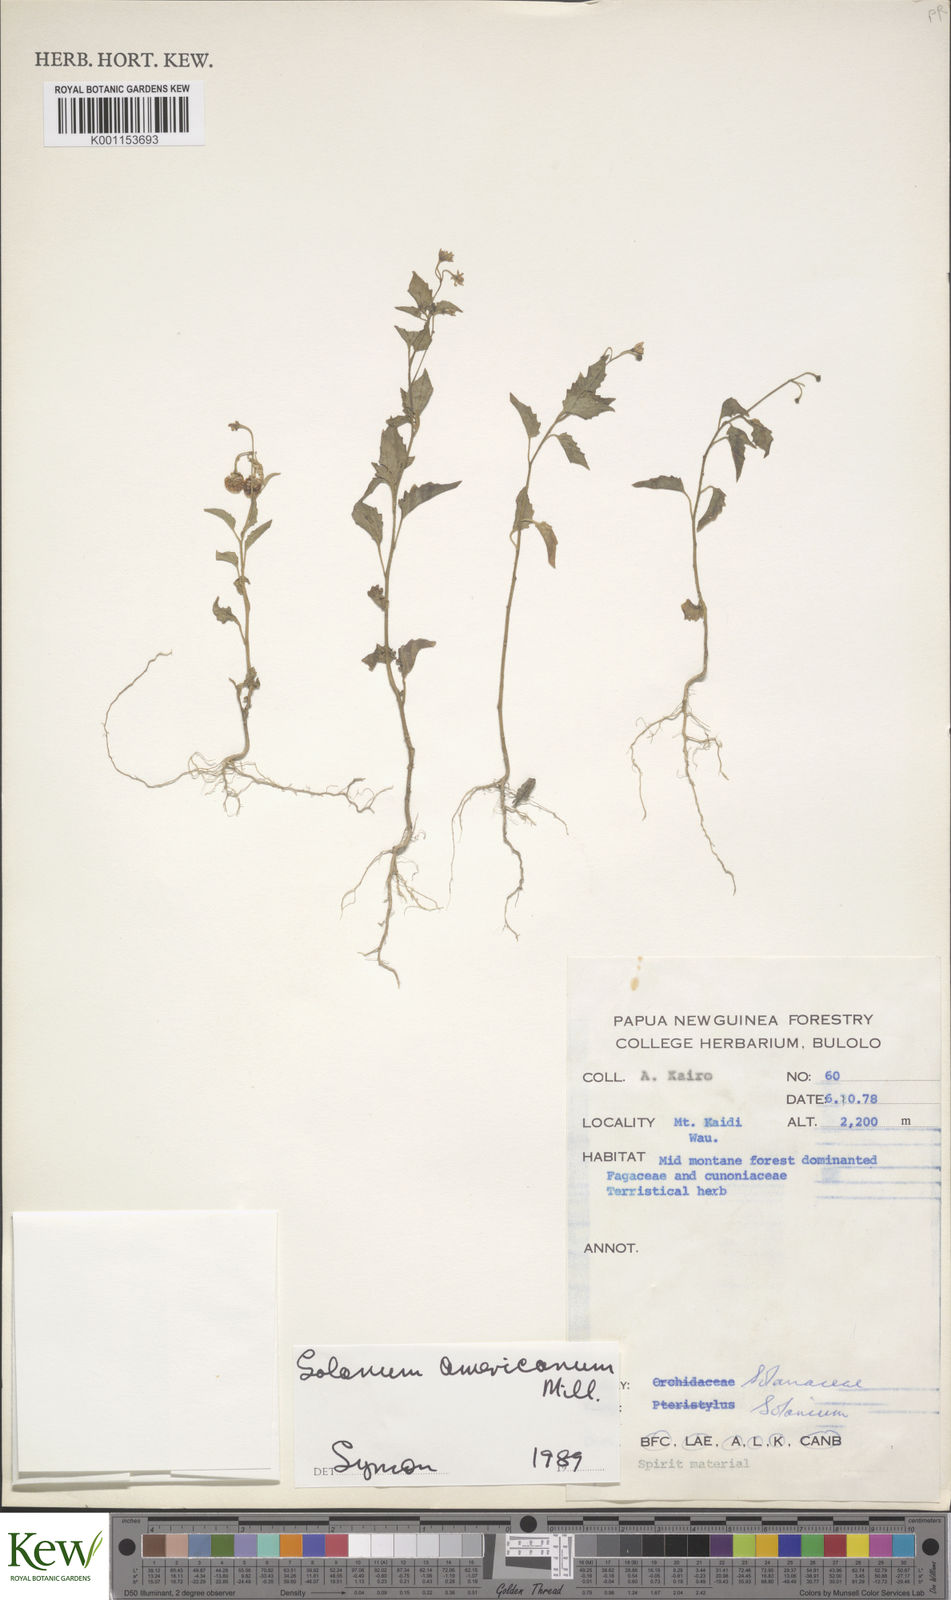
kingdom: Plantae
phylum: Tracheophyta
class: Magnoliopsida
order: Solanales
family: Solanaceae
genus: Solanum
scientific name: Solanum americanum
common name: American black nightshade
